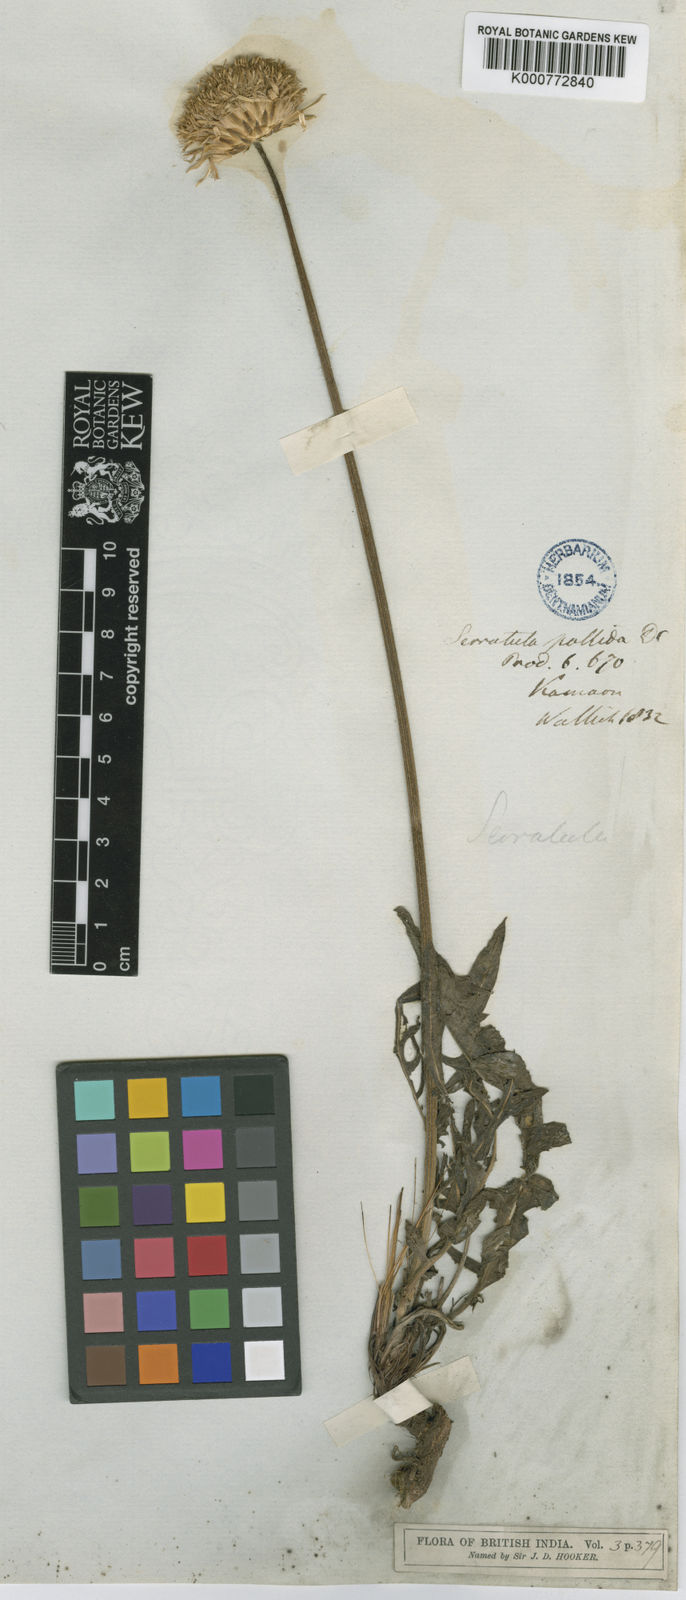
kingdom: Plantae
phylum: Tracheophyta
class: Magnoliopsida
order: Asterales
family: Asteraceae
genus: Klasea
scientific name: Klasea pallida
